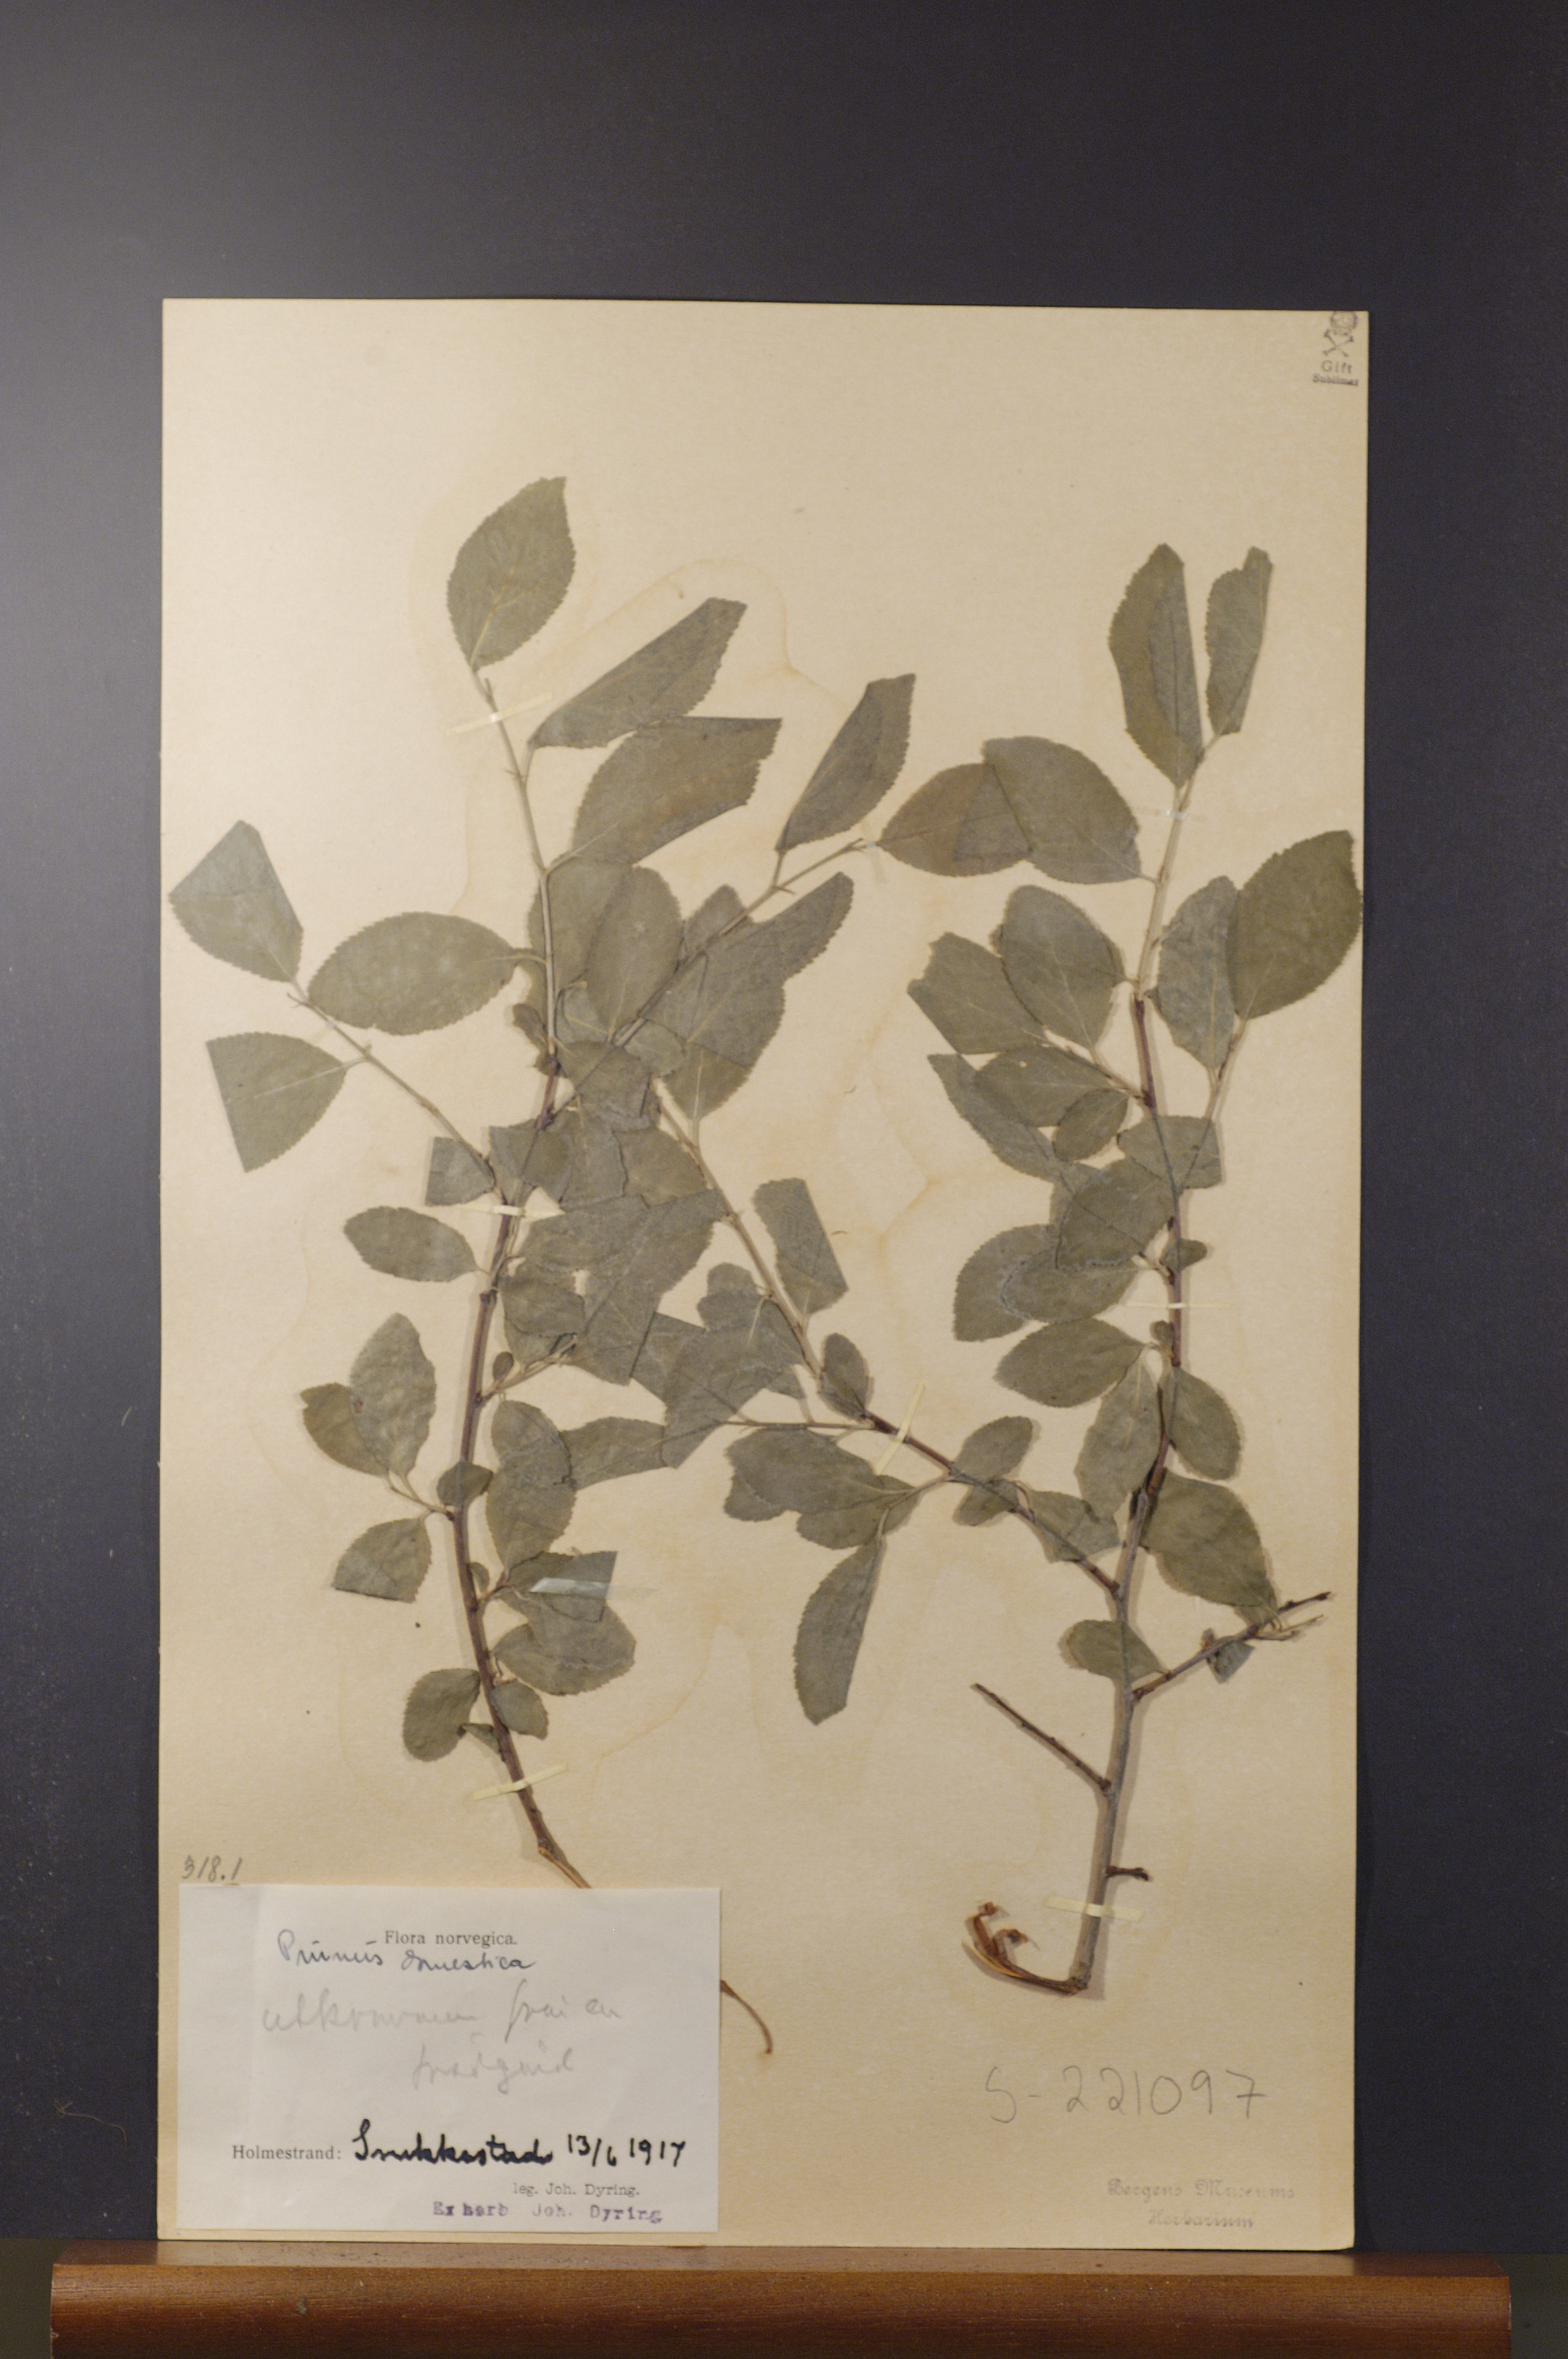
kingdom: Plantae
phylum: Tracheophyta
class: Magnoliopsida
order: Rosales
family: Rosaceae
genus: Prunus
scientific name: Prunus domestica
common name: Wild plum
